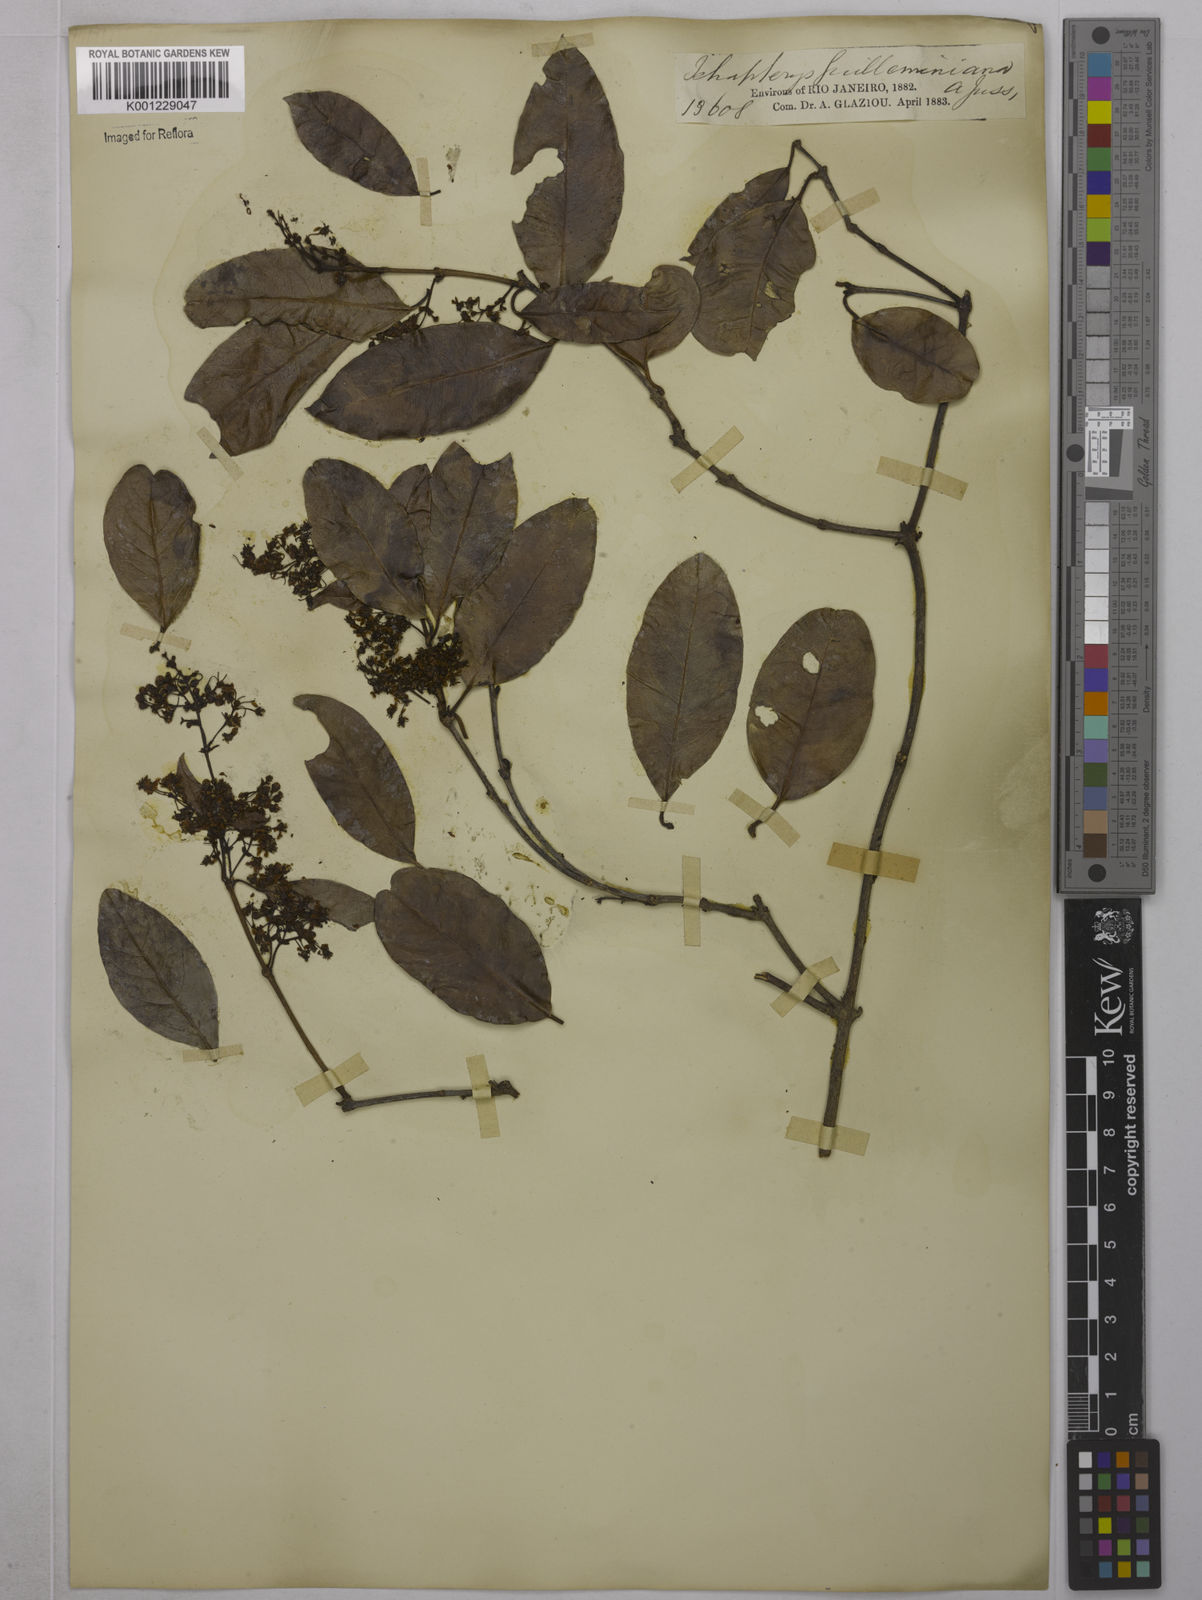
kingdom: Plantae
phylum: Tracheophyta
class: Magnoliopsida
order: Malpighiales
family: Malpighiaceae
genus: Niedenzuella
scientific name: Niedenzuella acutifolia
